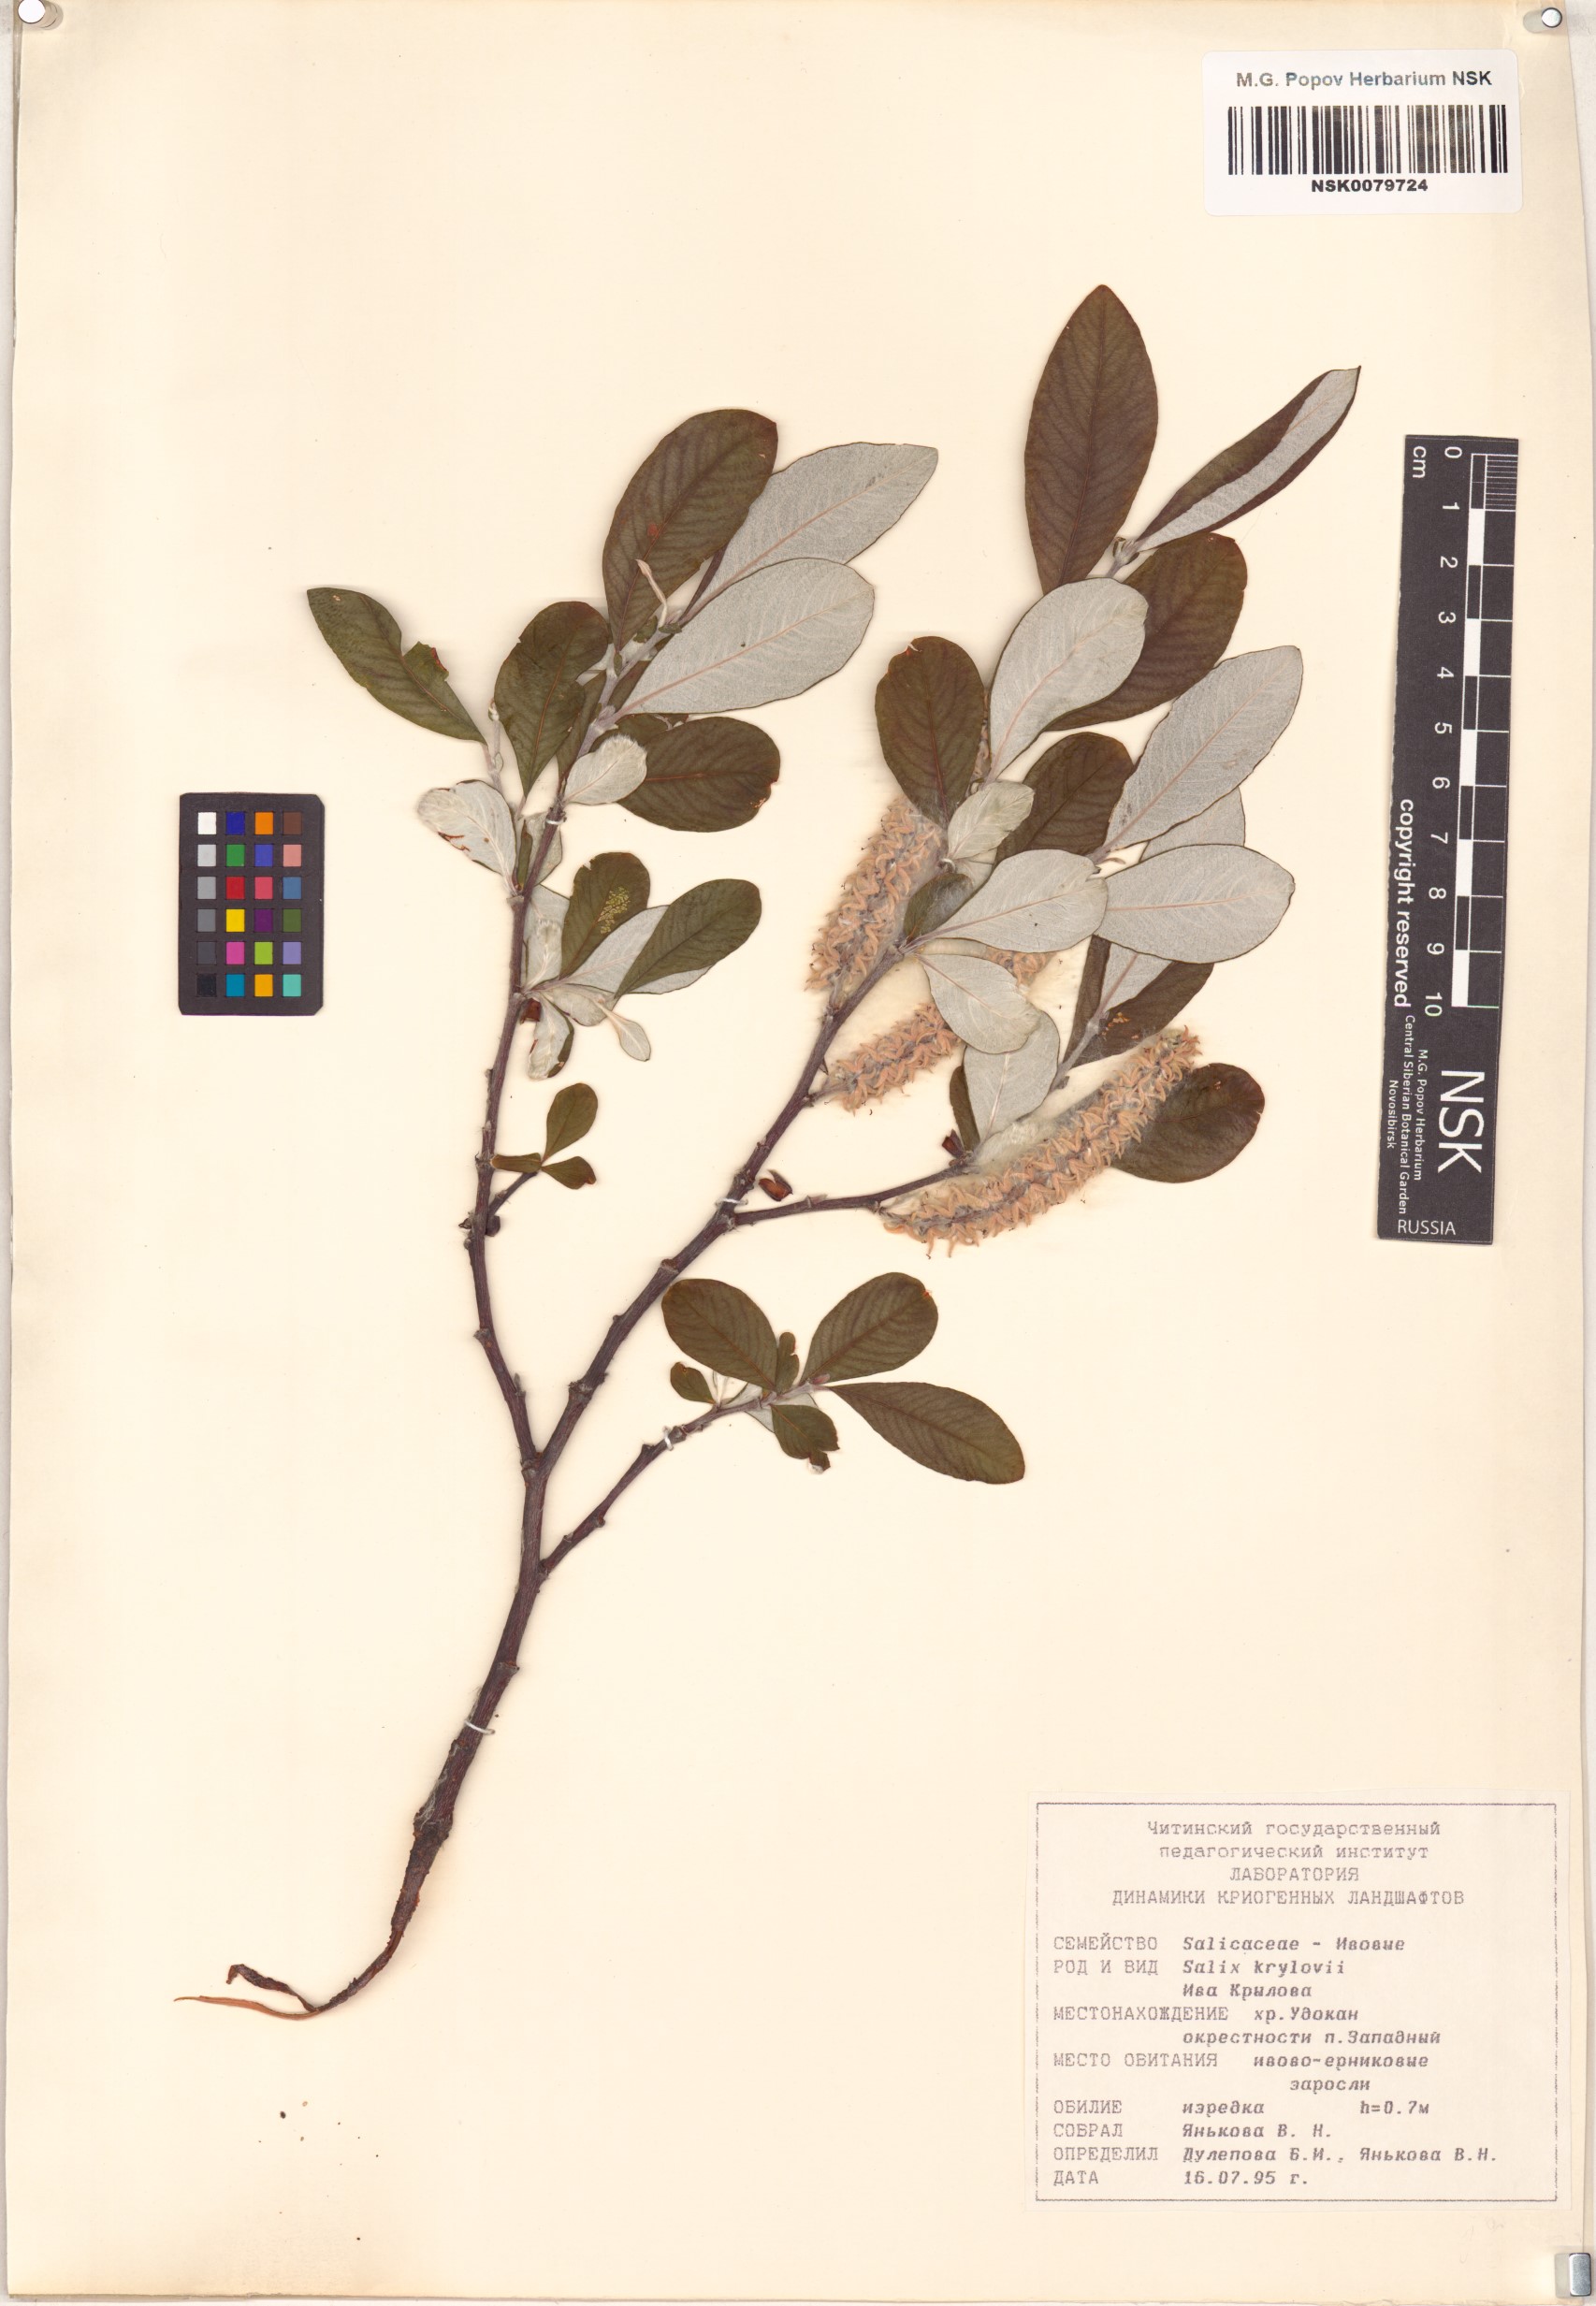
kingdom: Plantae
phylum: Tracheophyta
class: Magnoliopsida
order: Malpighiales
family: Salicaceae
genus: Salix
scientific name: Salix krylovii
